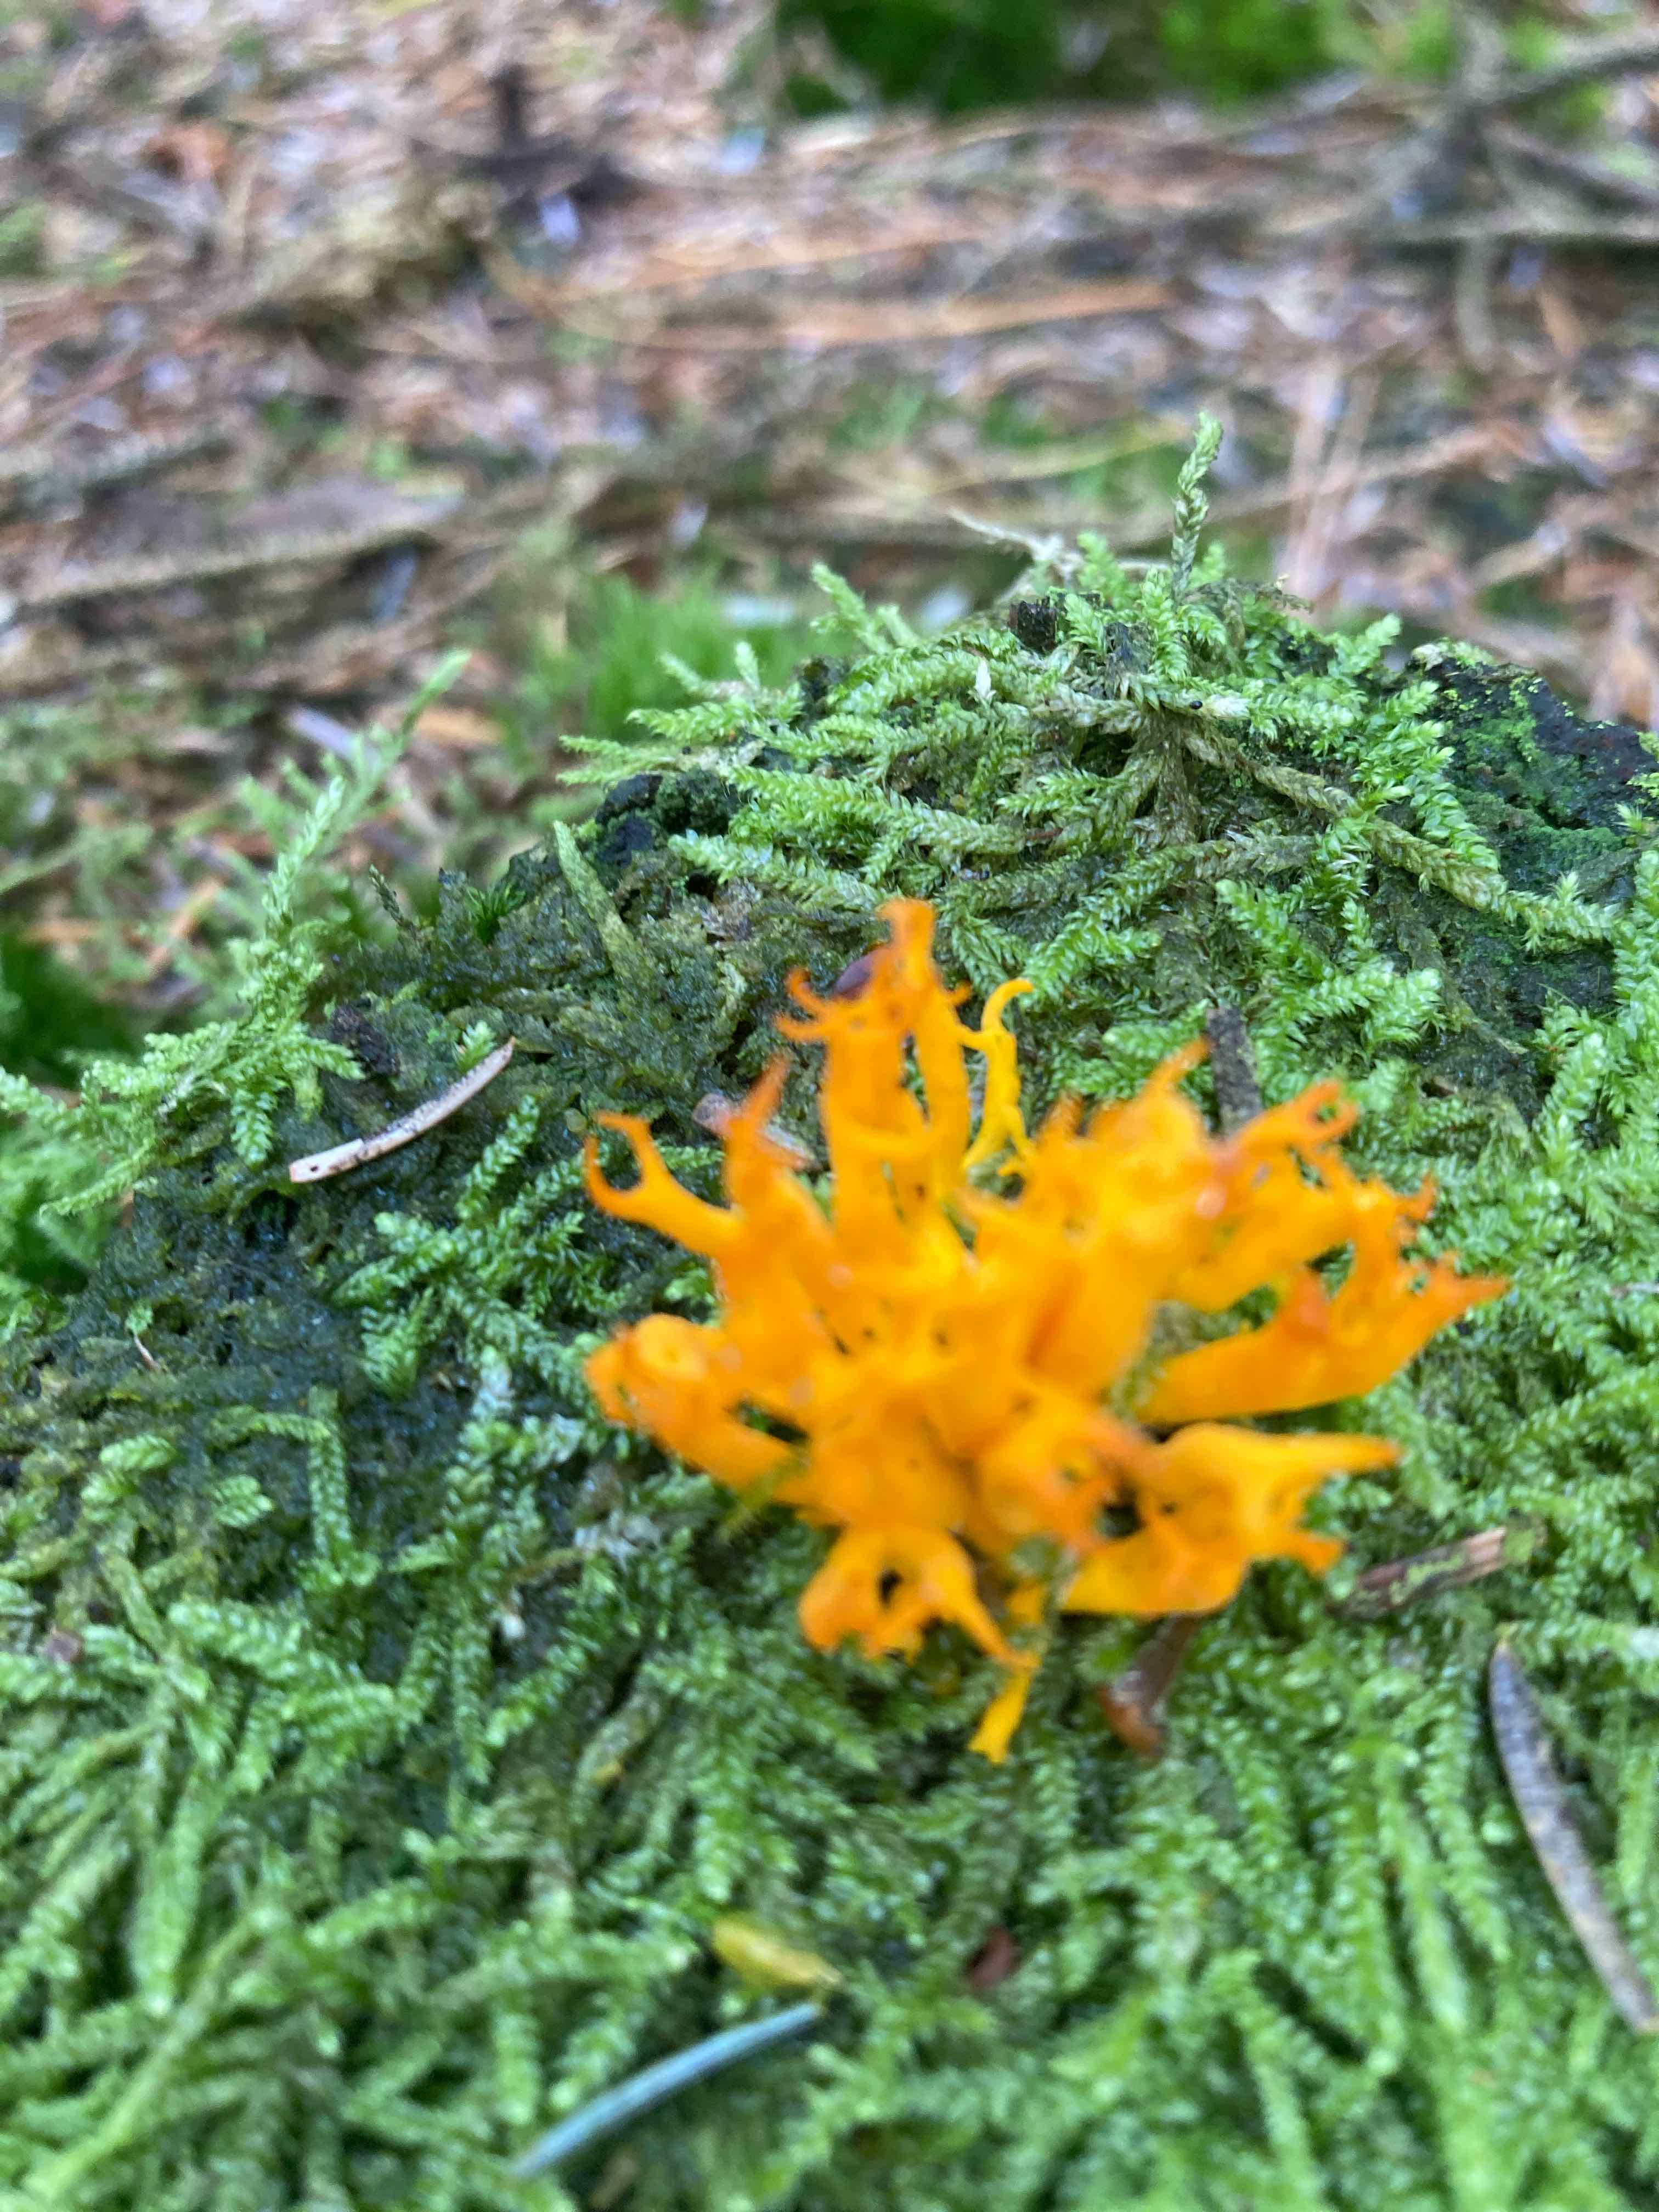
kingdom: Fungi
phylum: Basidiomycota
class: Dacrymycetes
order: Dacrymycetales
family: Dacrymycetaceae
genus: Calocera
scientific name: Calocera viscosa
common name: almindelig guldgaffel
